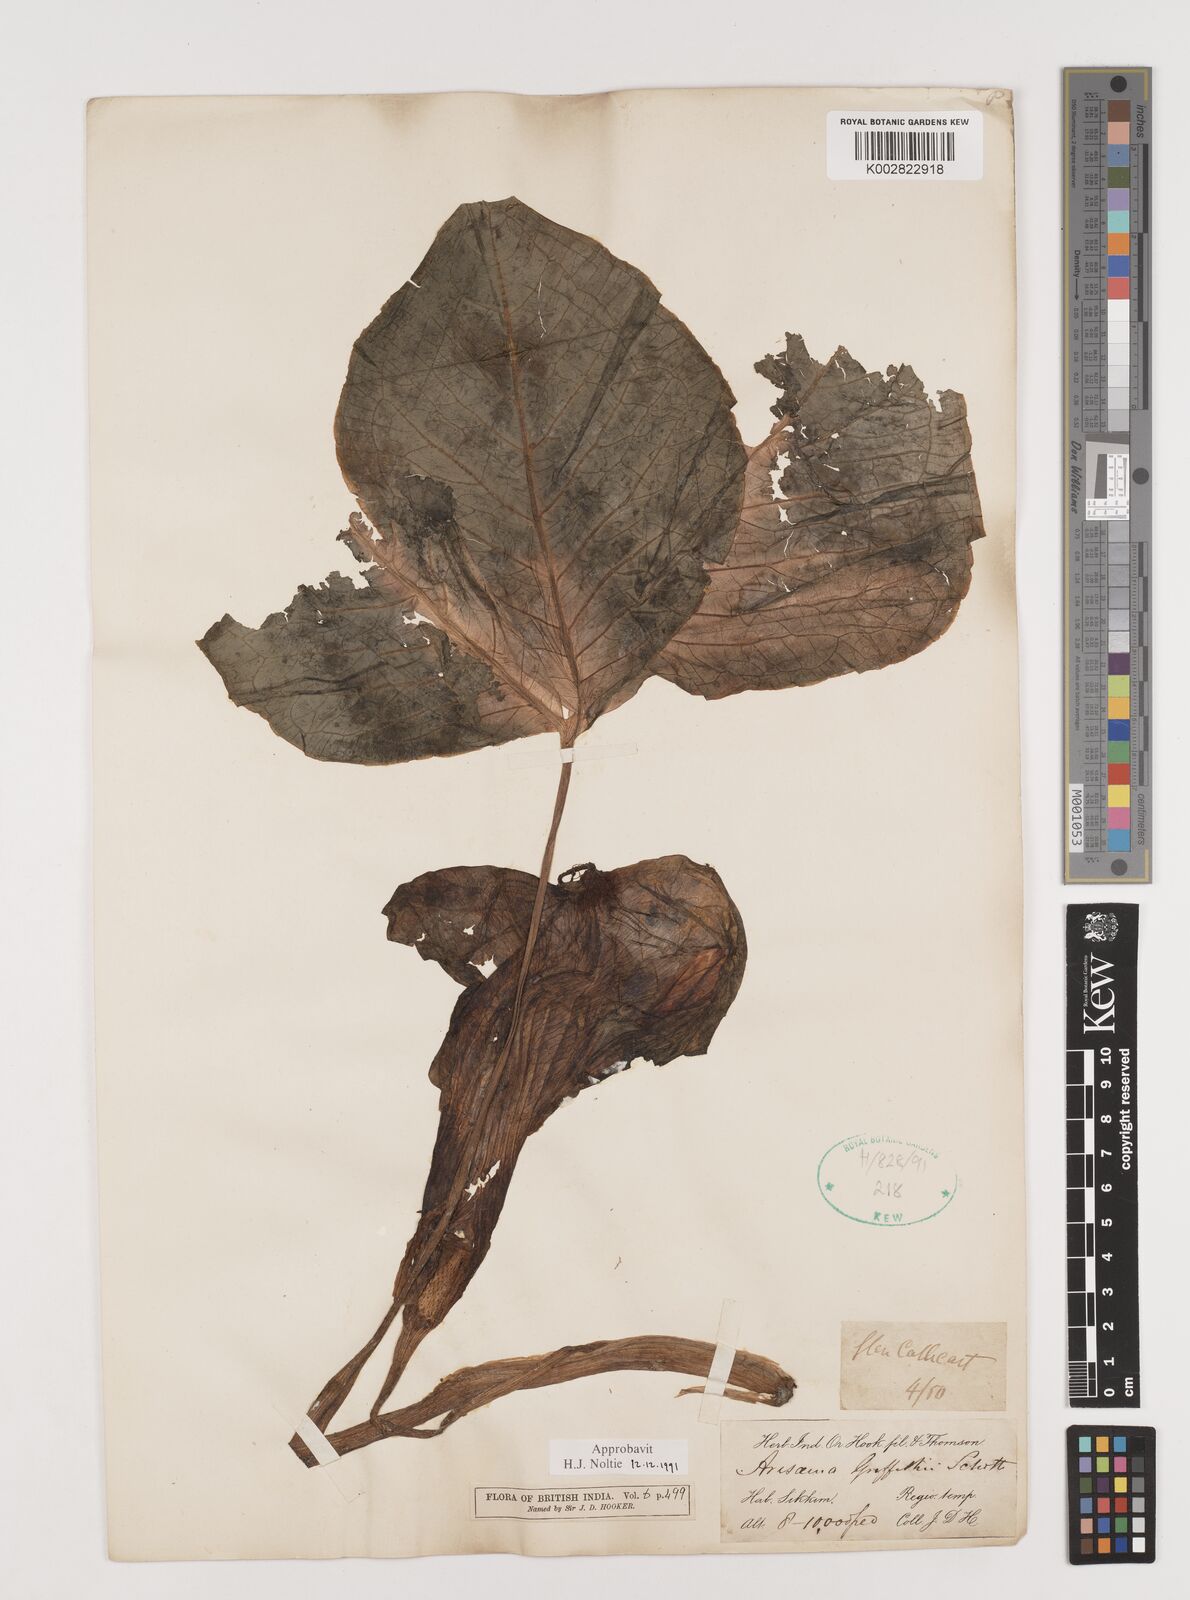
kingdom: Plantae
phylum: Tracheophyta
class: Liliopsida
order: Alismatales
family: Araceae
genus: Arisaema
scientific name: Arisaema griffithii
